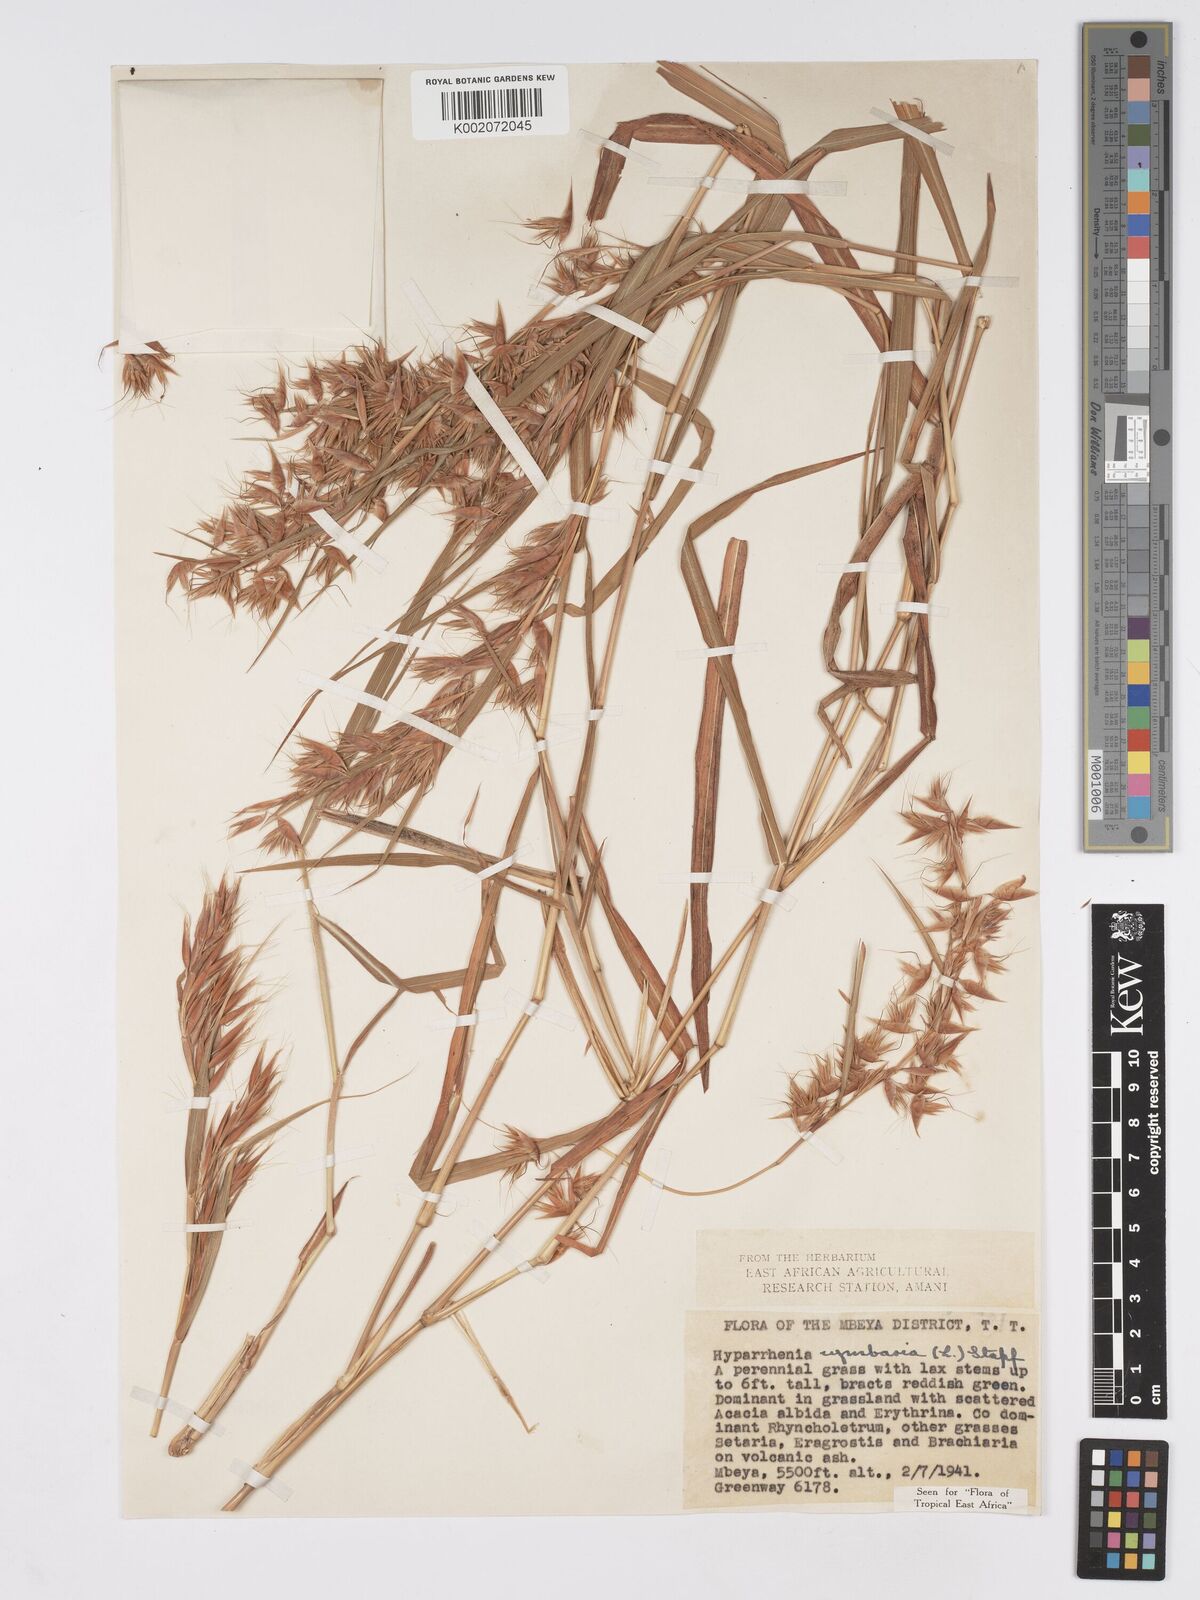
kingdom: Plantae
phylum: Tracheophyta
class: Liliopsida
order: Poales
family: Poaceae
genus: Hyparrhenia
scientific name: Hyparrhenia cymbaria
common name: Boat thatching grass
